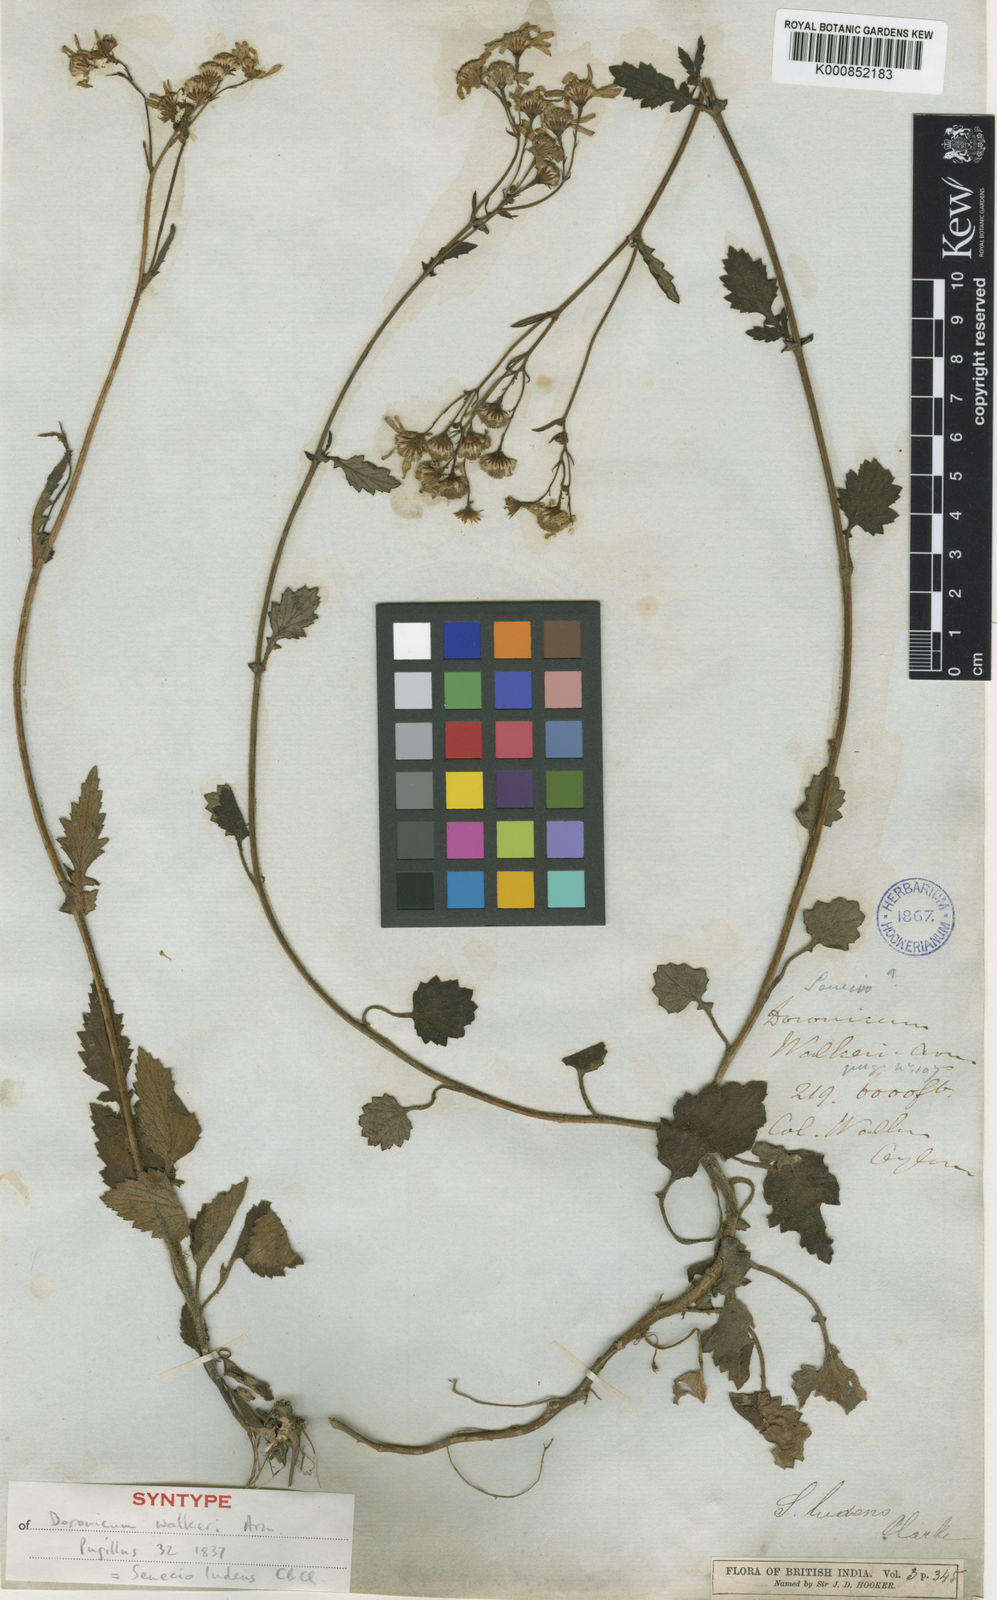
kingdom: Plantae
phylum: Tracheophyta
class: Magnoliopsida
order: Asterales
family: Asteraceae
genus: Senecio
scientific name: Senecio ludens
